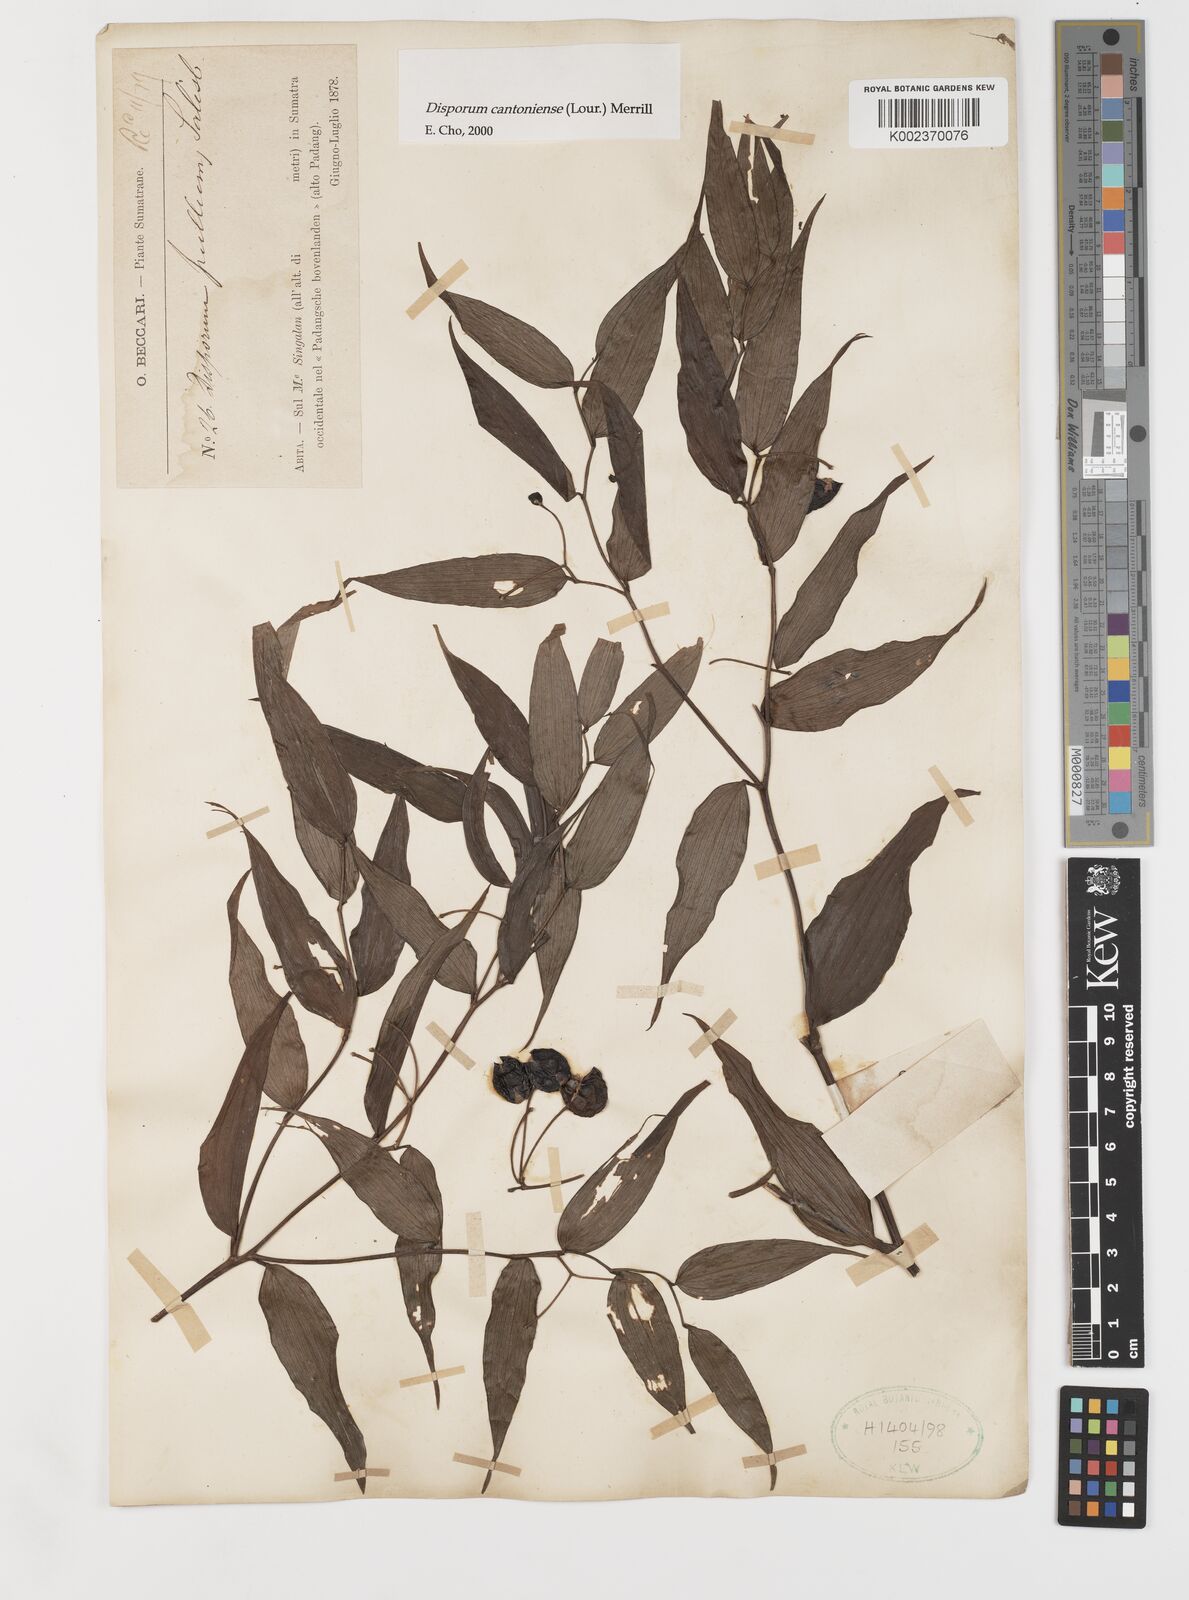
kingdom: Plantae
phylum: Tracheophyta
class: Liliopsida
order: Liliales
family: Colchicaceae
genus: Disporum
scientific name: Disporum cantoniense
